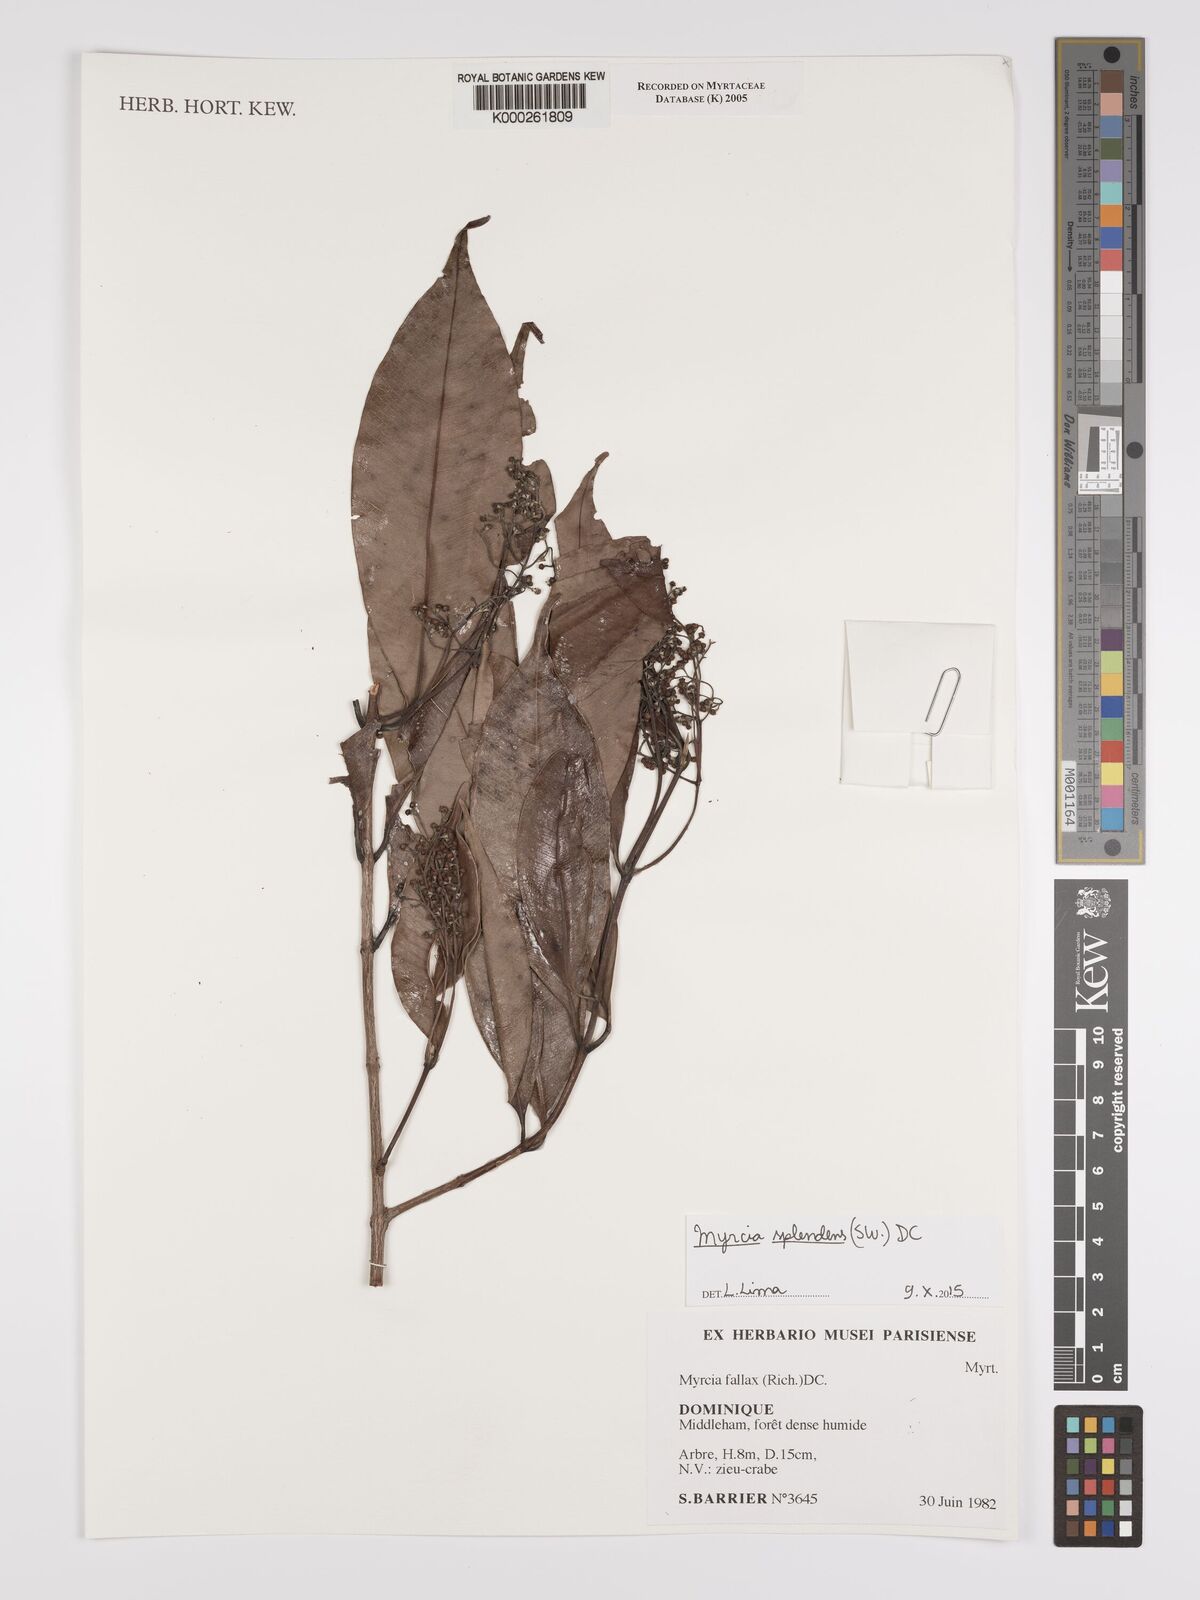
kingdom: Plantae
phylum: Tracheophyta
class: Magnoliopsida
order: Myrtales
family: Myrtaceae
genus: Myrcia
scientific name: Myrcia splendens
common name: Surinam cherry
